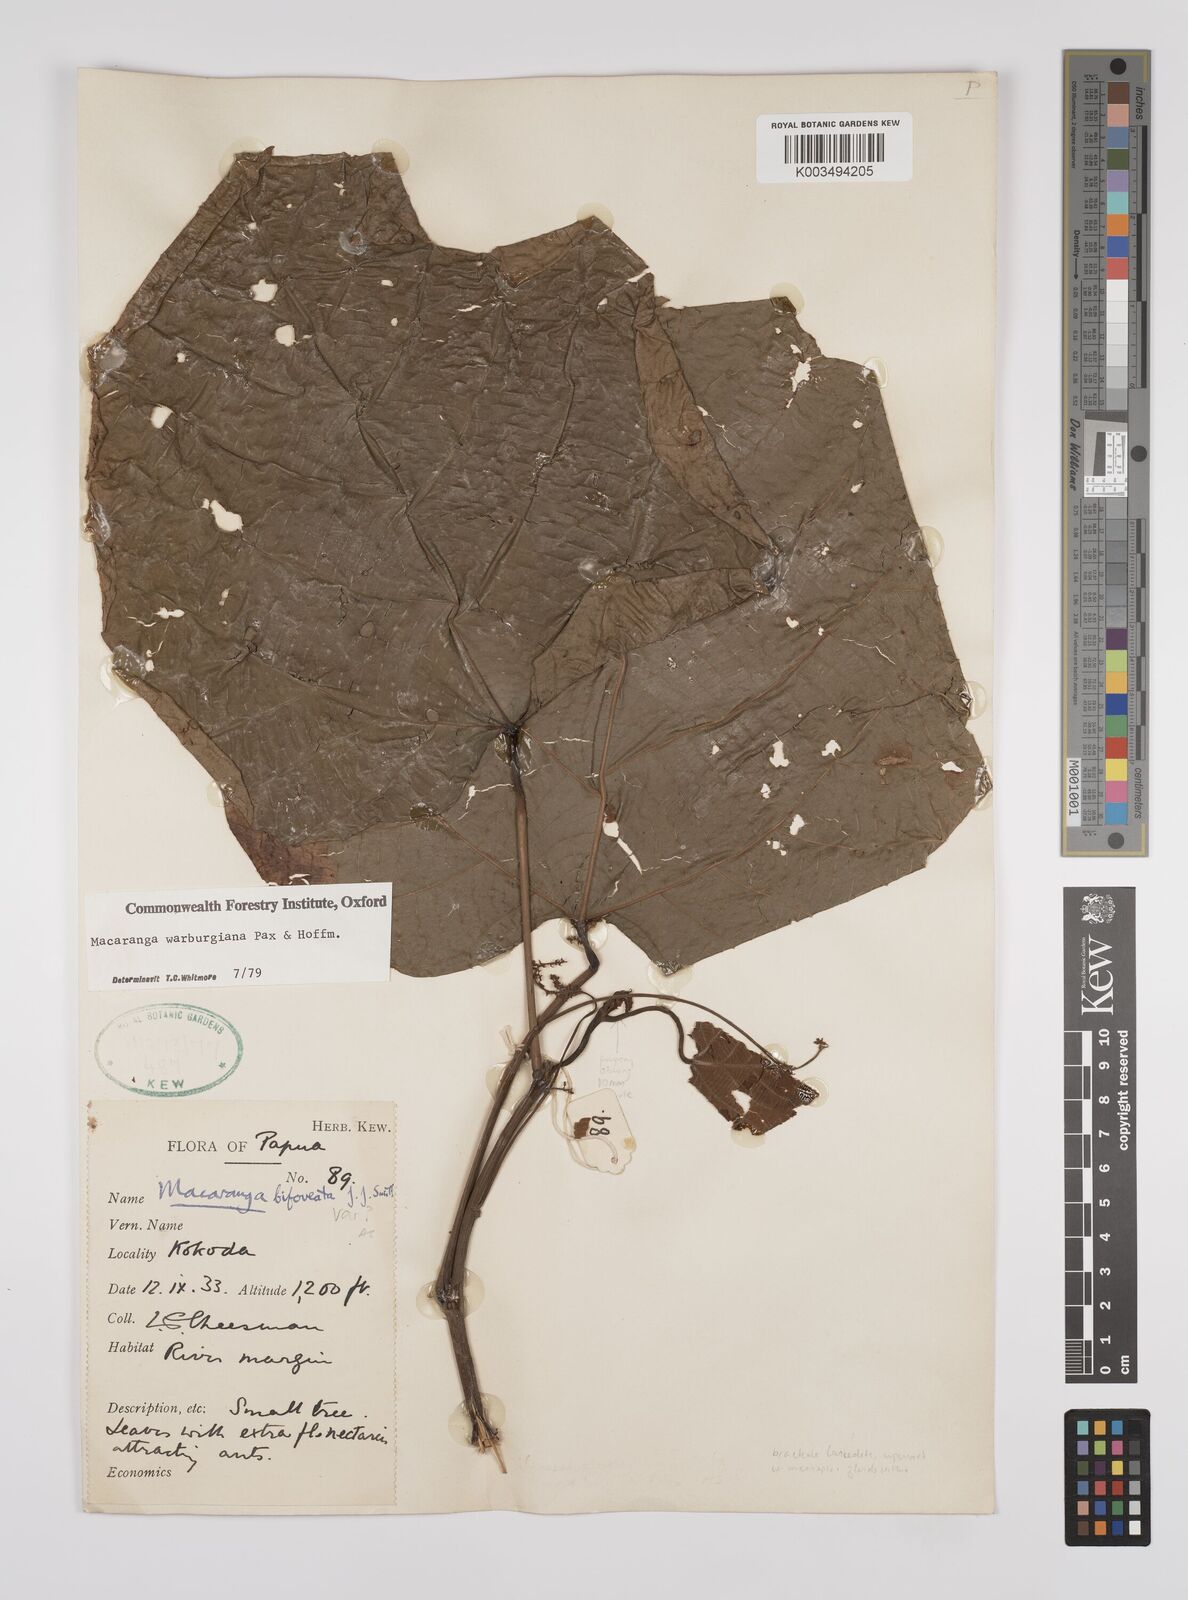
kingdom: Plantae
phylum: Tracheophyta
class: Magnoliopsida
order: Malpighiales
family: Euphorbiaceae
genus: Macaranga
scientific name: Macaranga warburgiana
